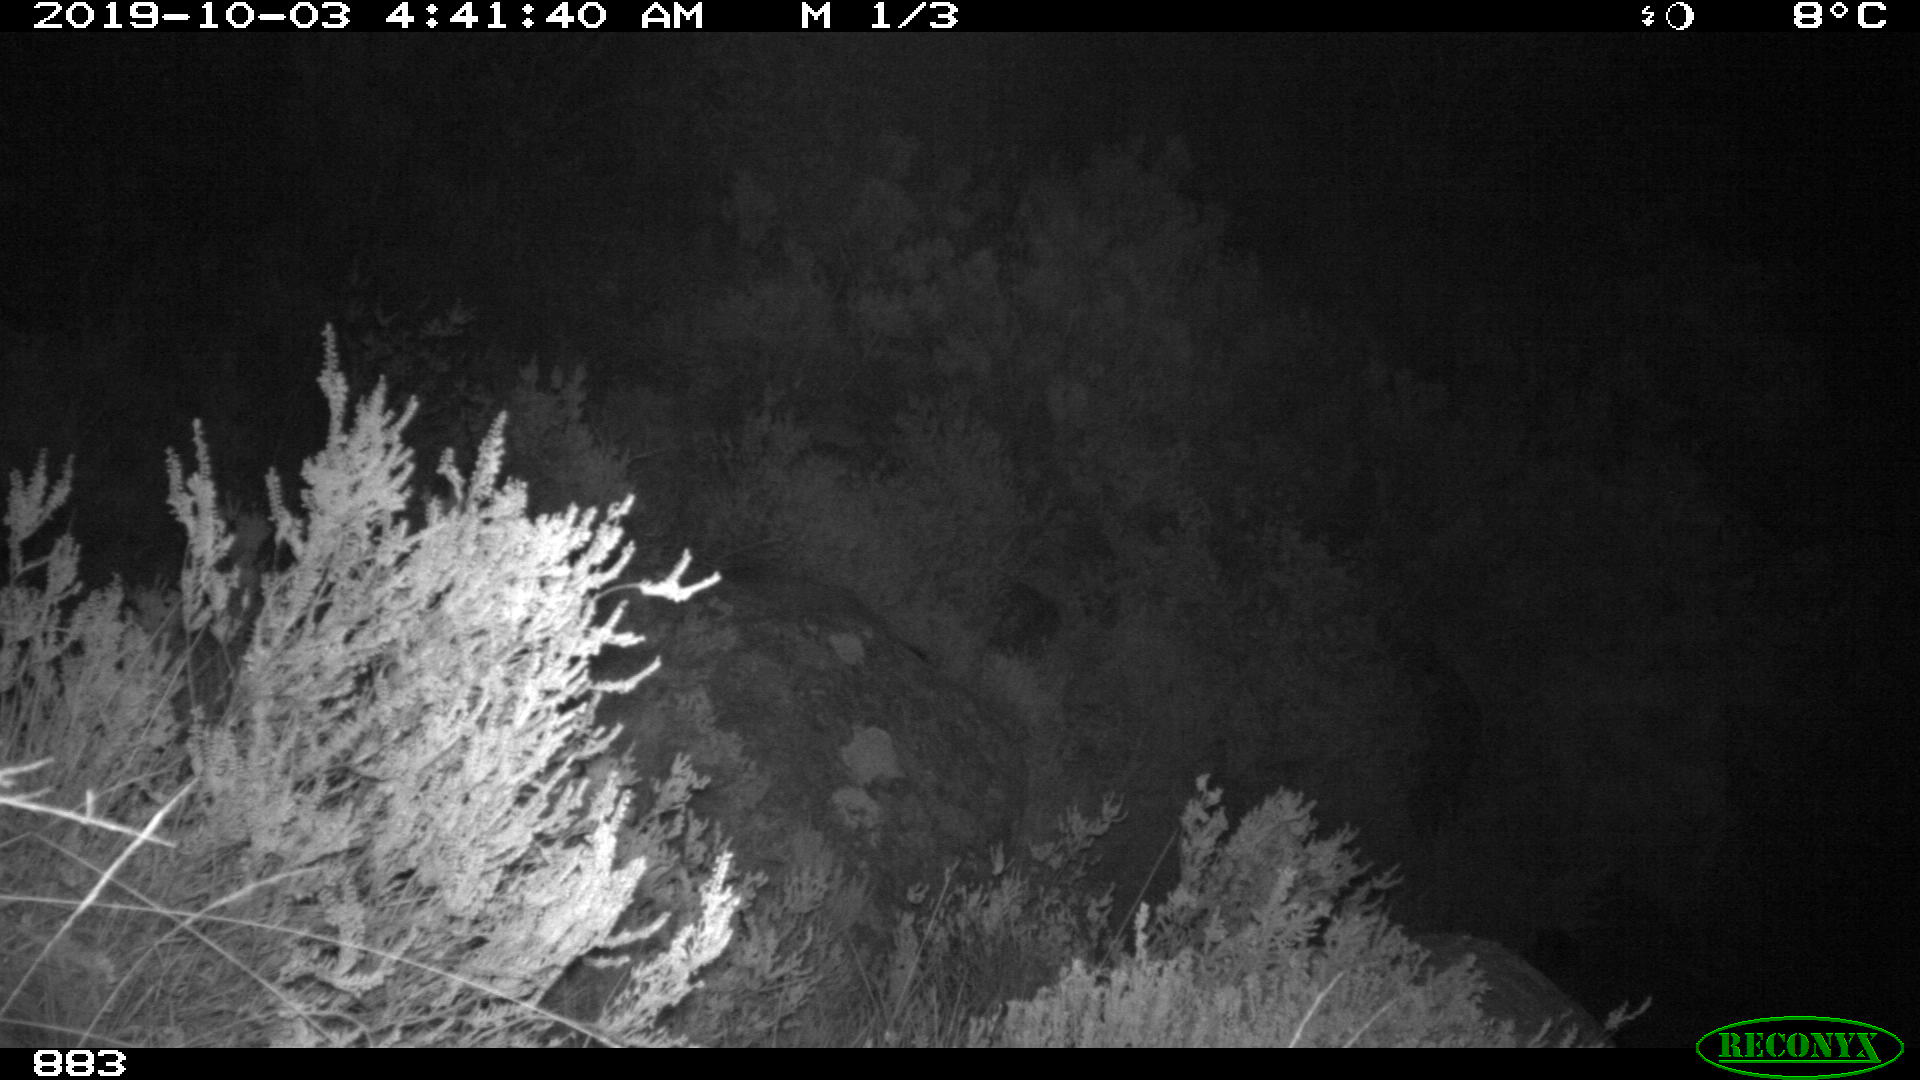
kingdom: Animalia
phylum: Chordata
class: Mammalia
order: Artiodactyla
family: Suidae
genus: Sus
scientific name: Sus scrofa
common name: Wild boar
